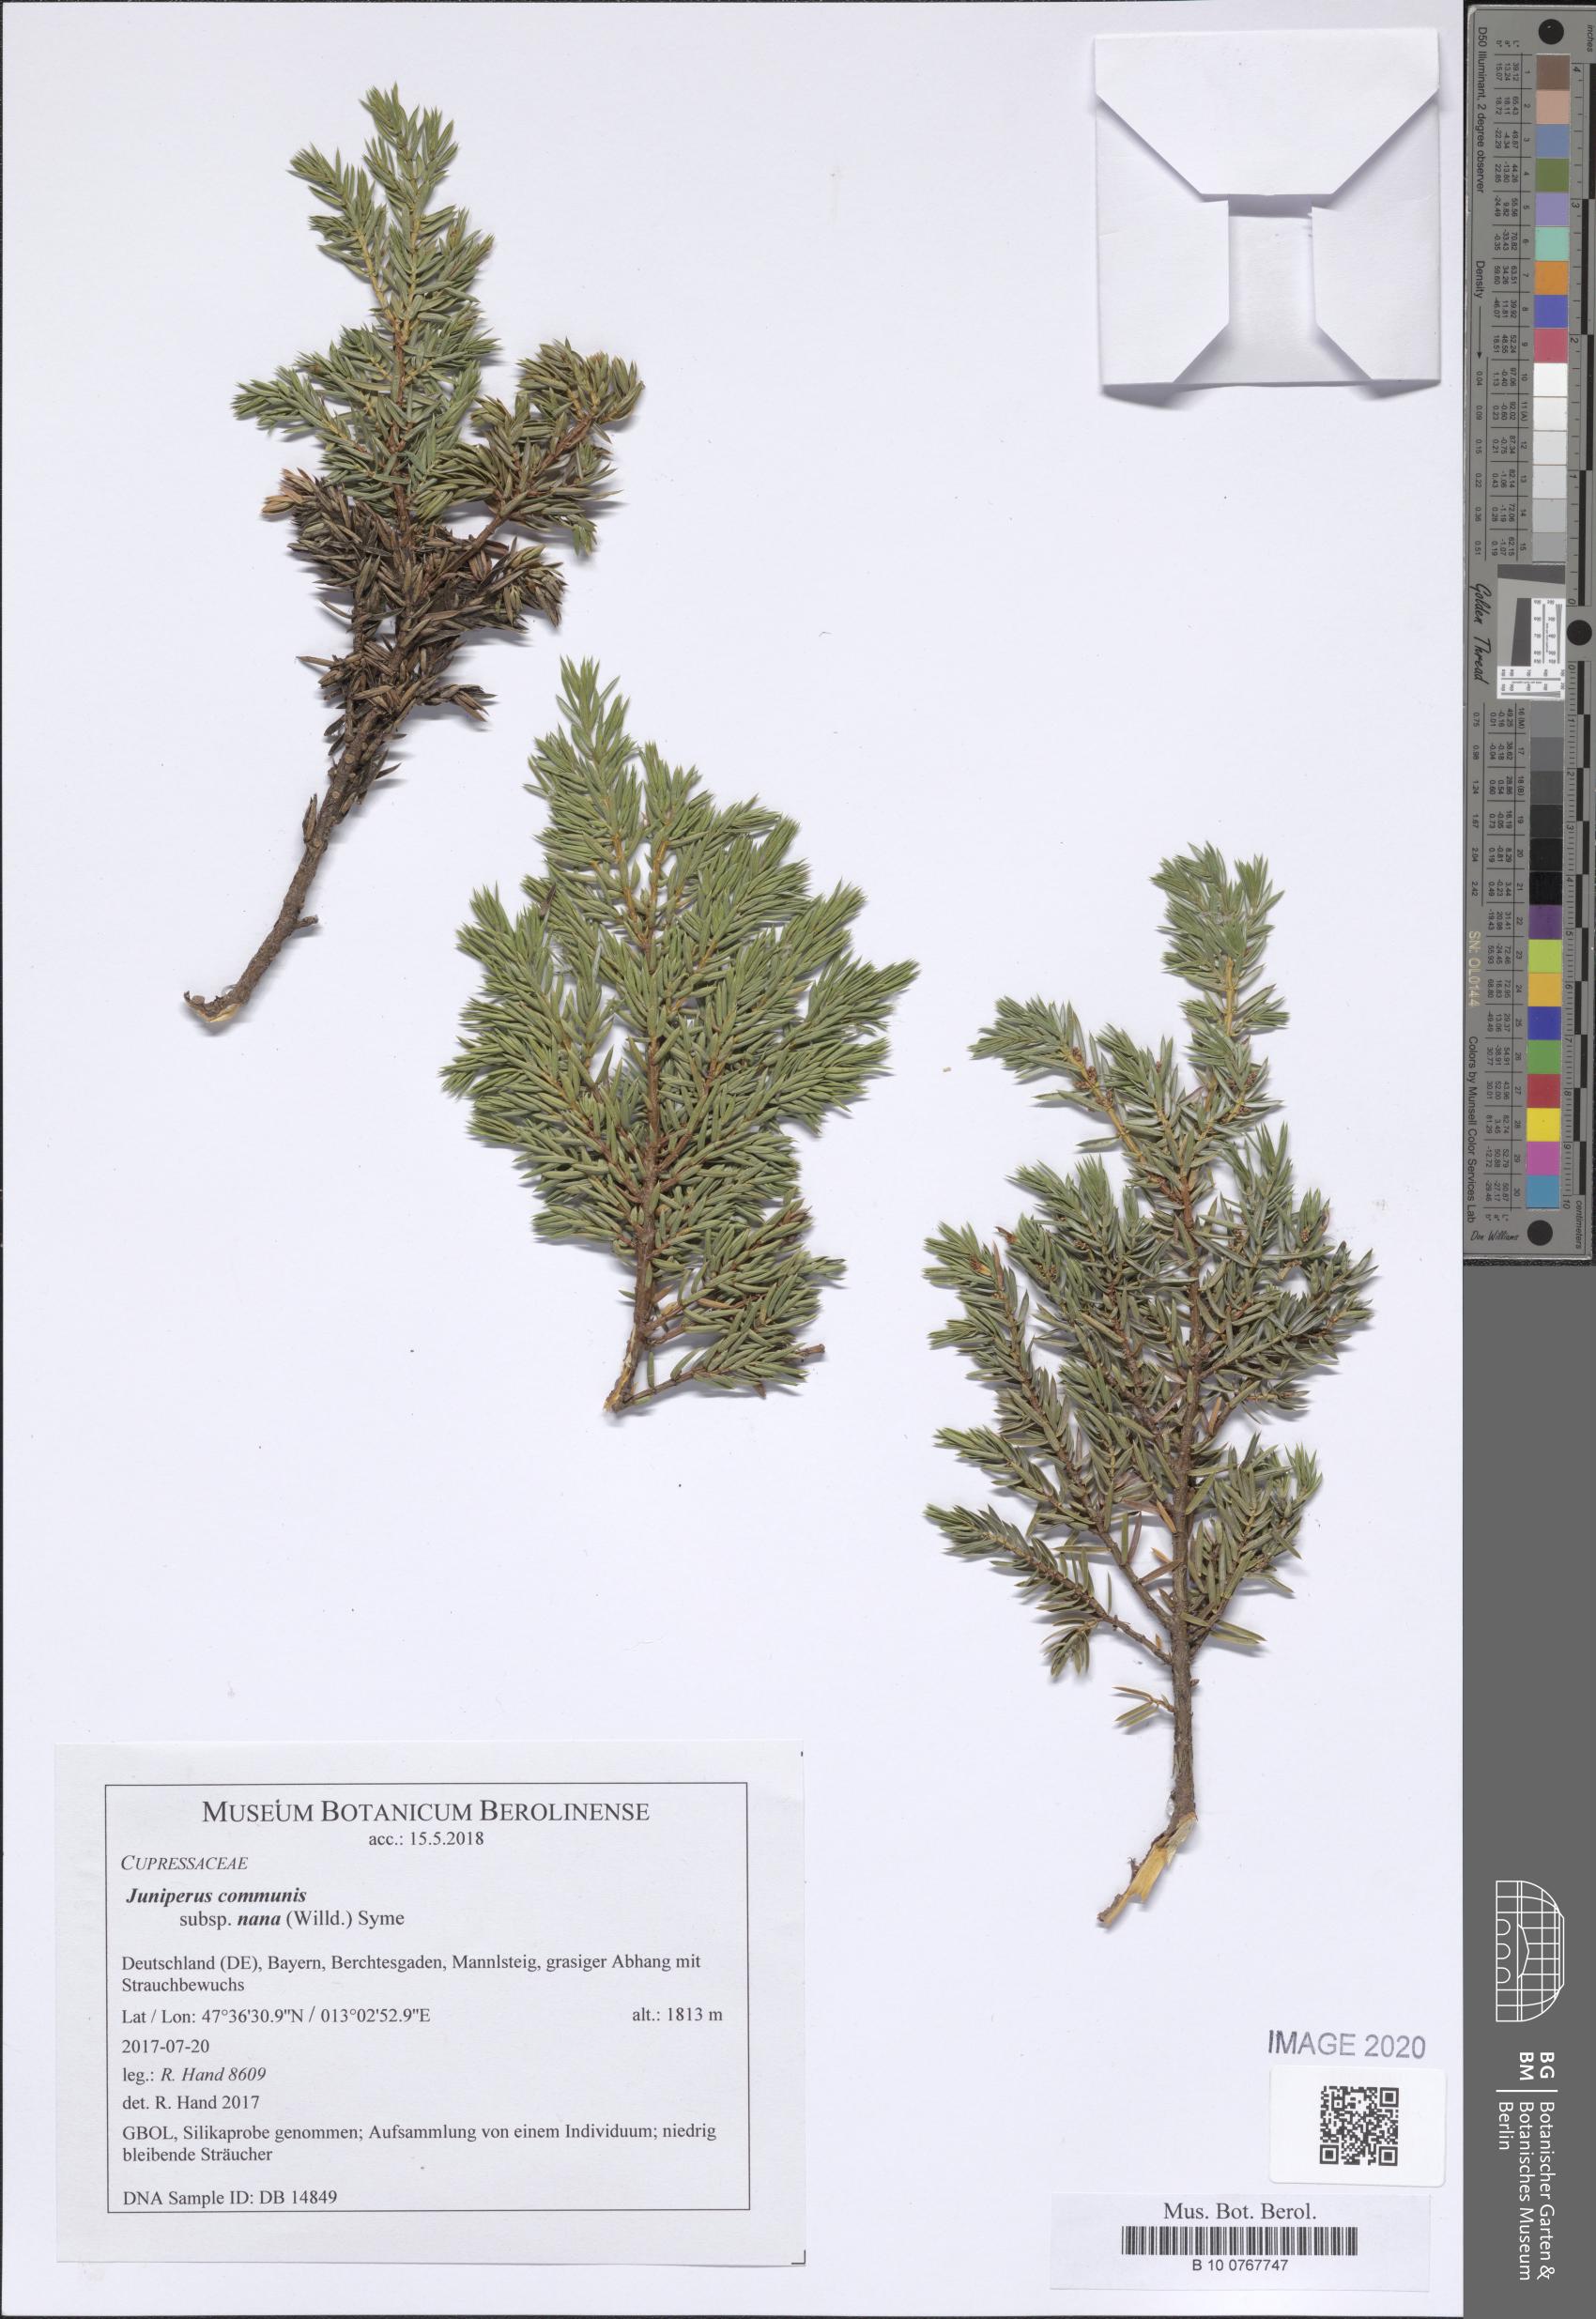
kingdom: Plantae
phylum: Tracheophyta
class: Pinopsida
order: Pinales
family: Cupressaceae
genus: Juniperus
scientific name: Juniperus communis
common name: Common juniper
